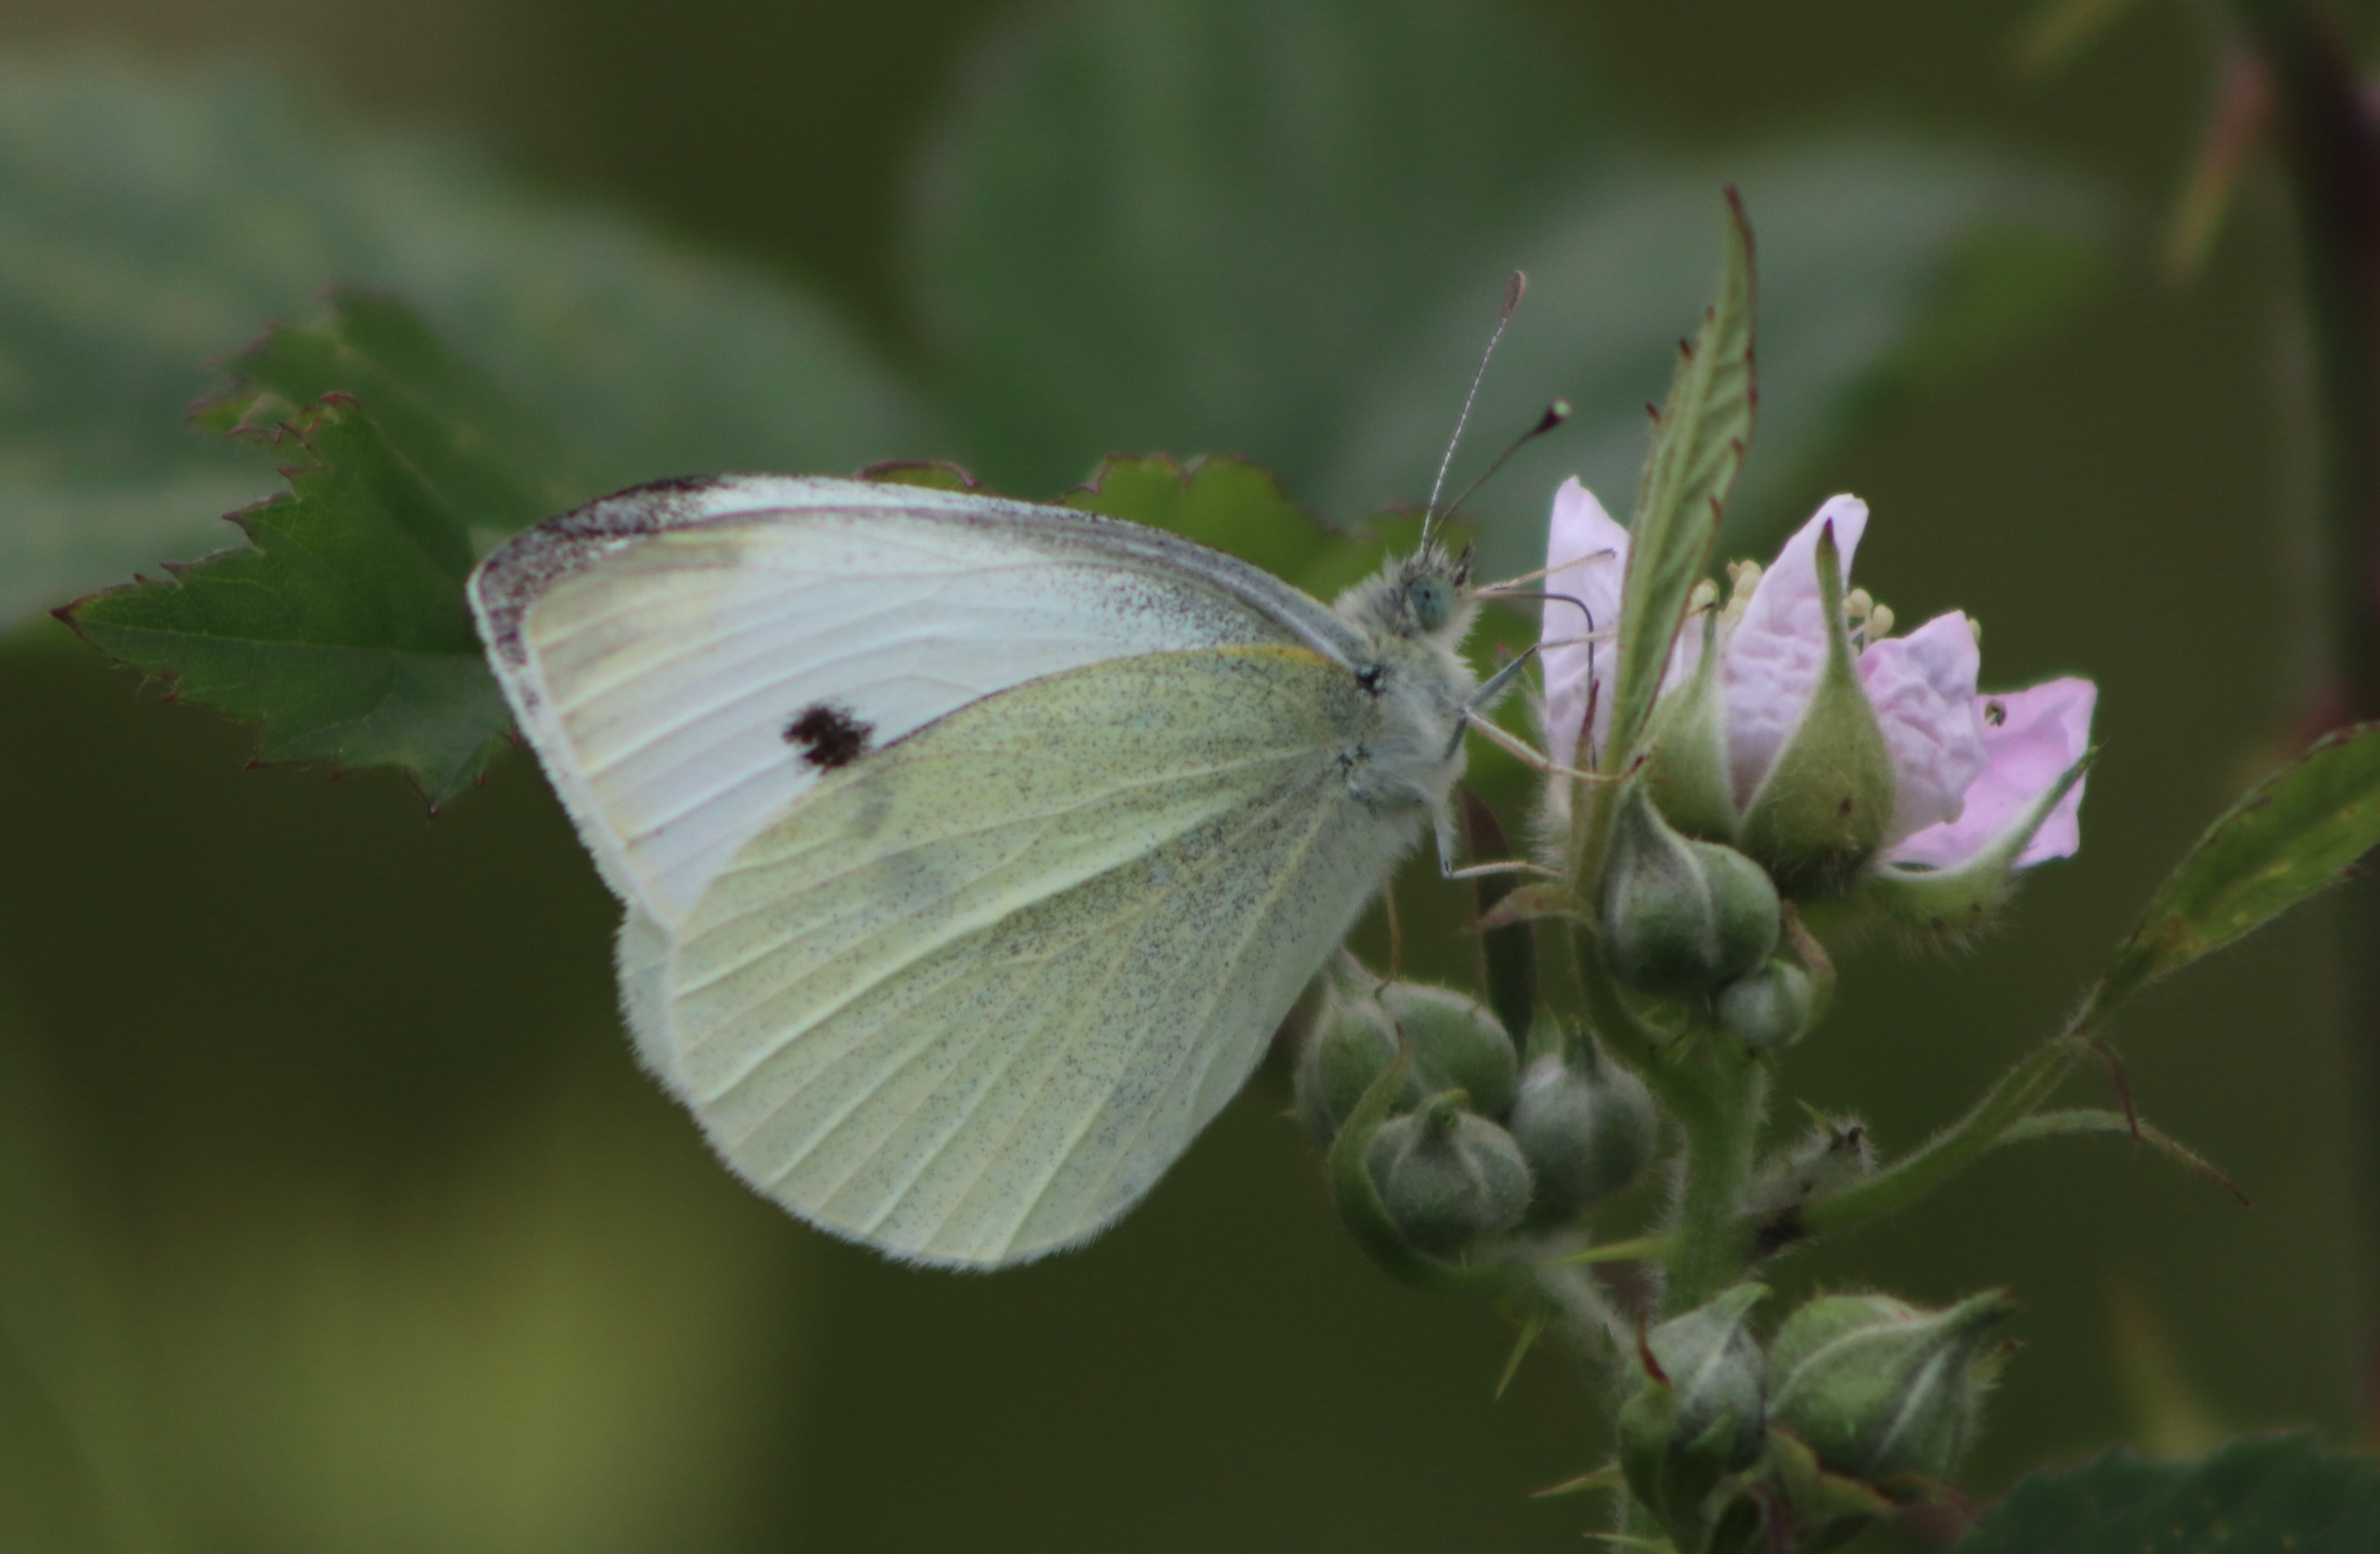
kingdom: Animalia
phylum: Arthropoda
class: Insecta
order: Lepidoptera
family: Pieridae
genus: Pieris
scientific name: Pieris rapae
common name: Lille kålsommerfugl
